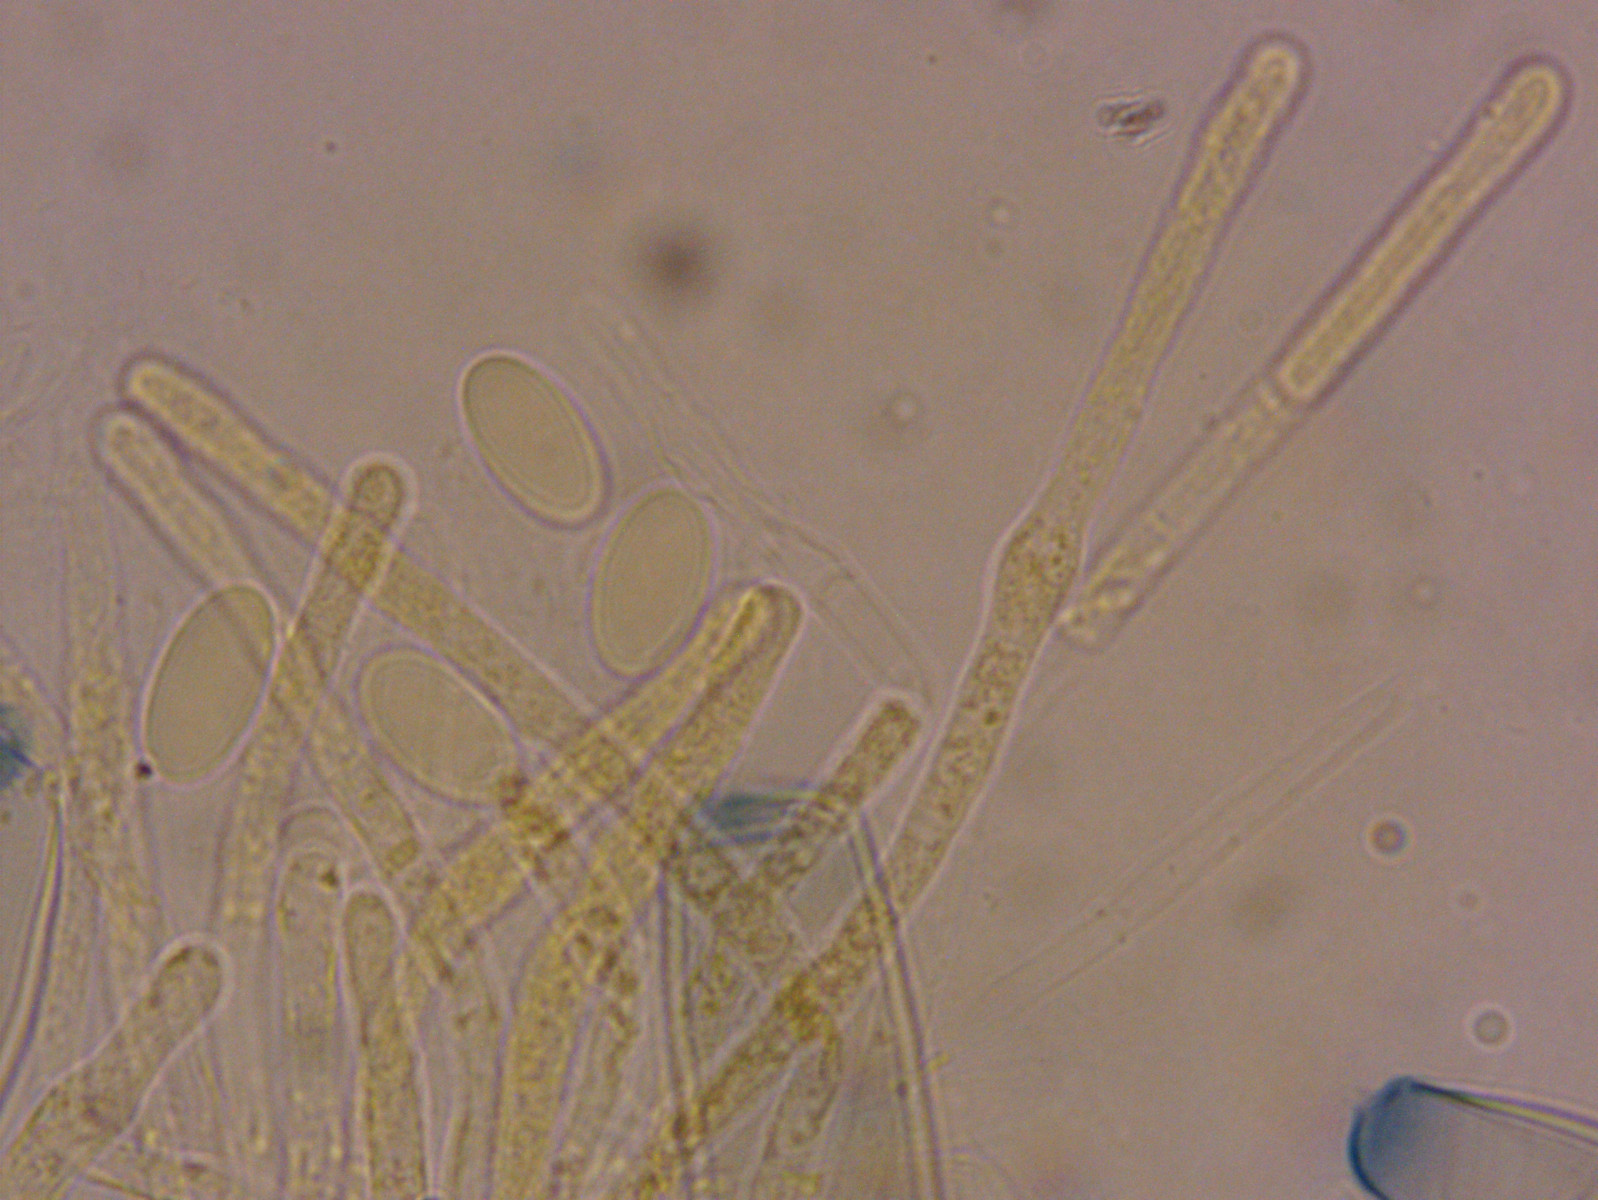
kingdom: Fungi
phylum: Ascomycota
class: Pezizomycetes
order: Pezizales
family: Pezizaceae
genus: Peziza
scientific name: Peziza varia
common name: Ved-bægersvamp
